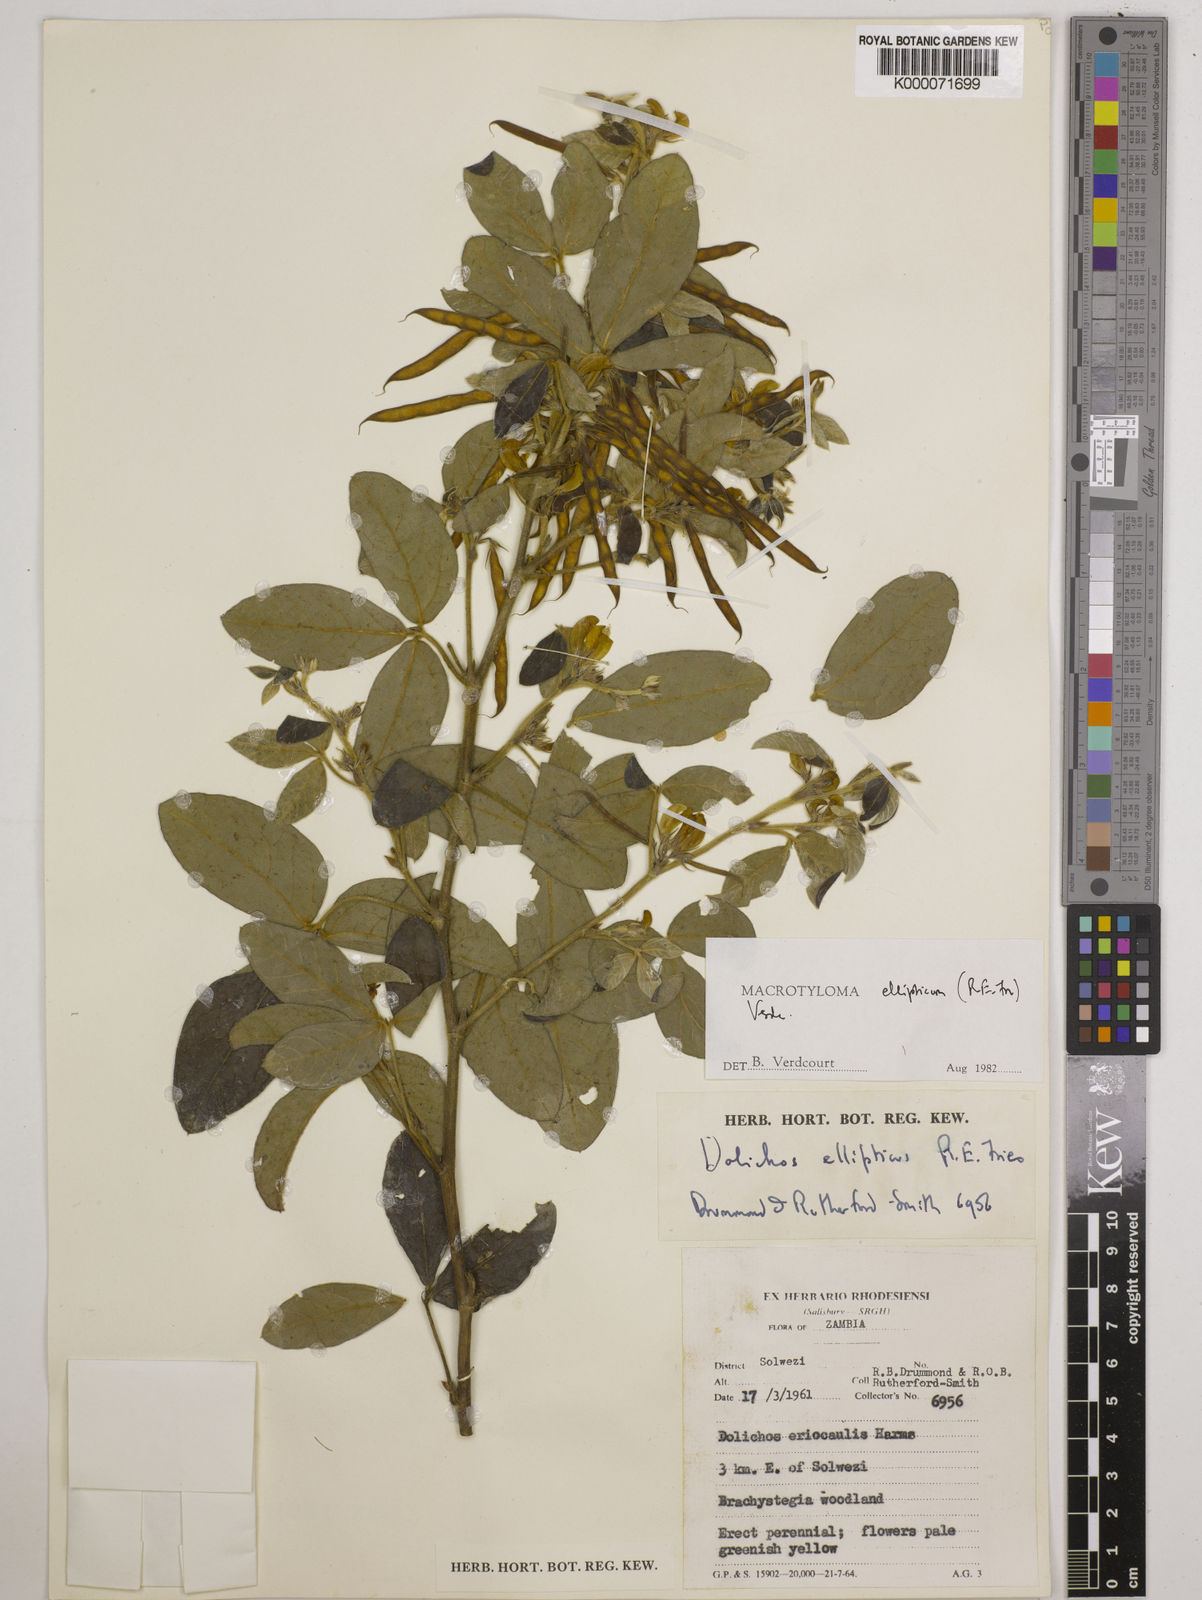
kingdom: Plantae
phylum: Tracheophyta
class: Magnoliopsida
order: Fabales
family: Fabaceae
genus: Macrotyloma
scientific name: Macrotyloma ellipticum
